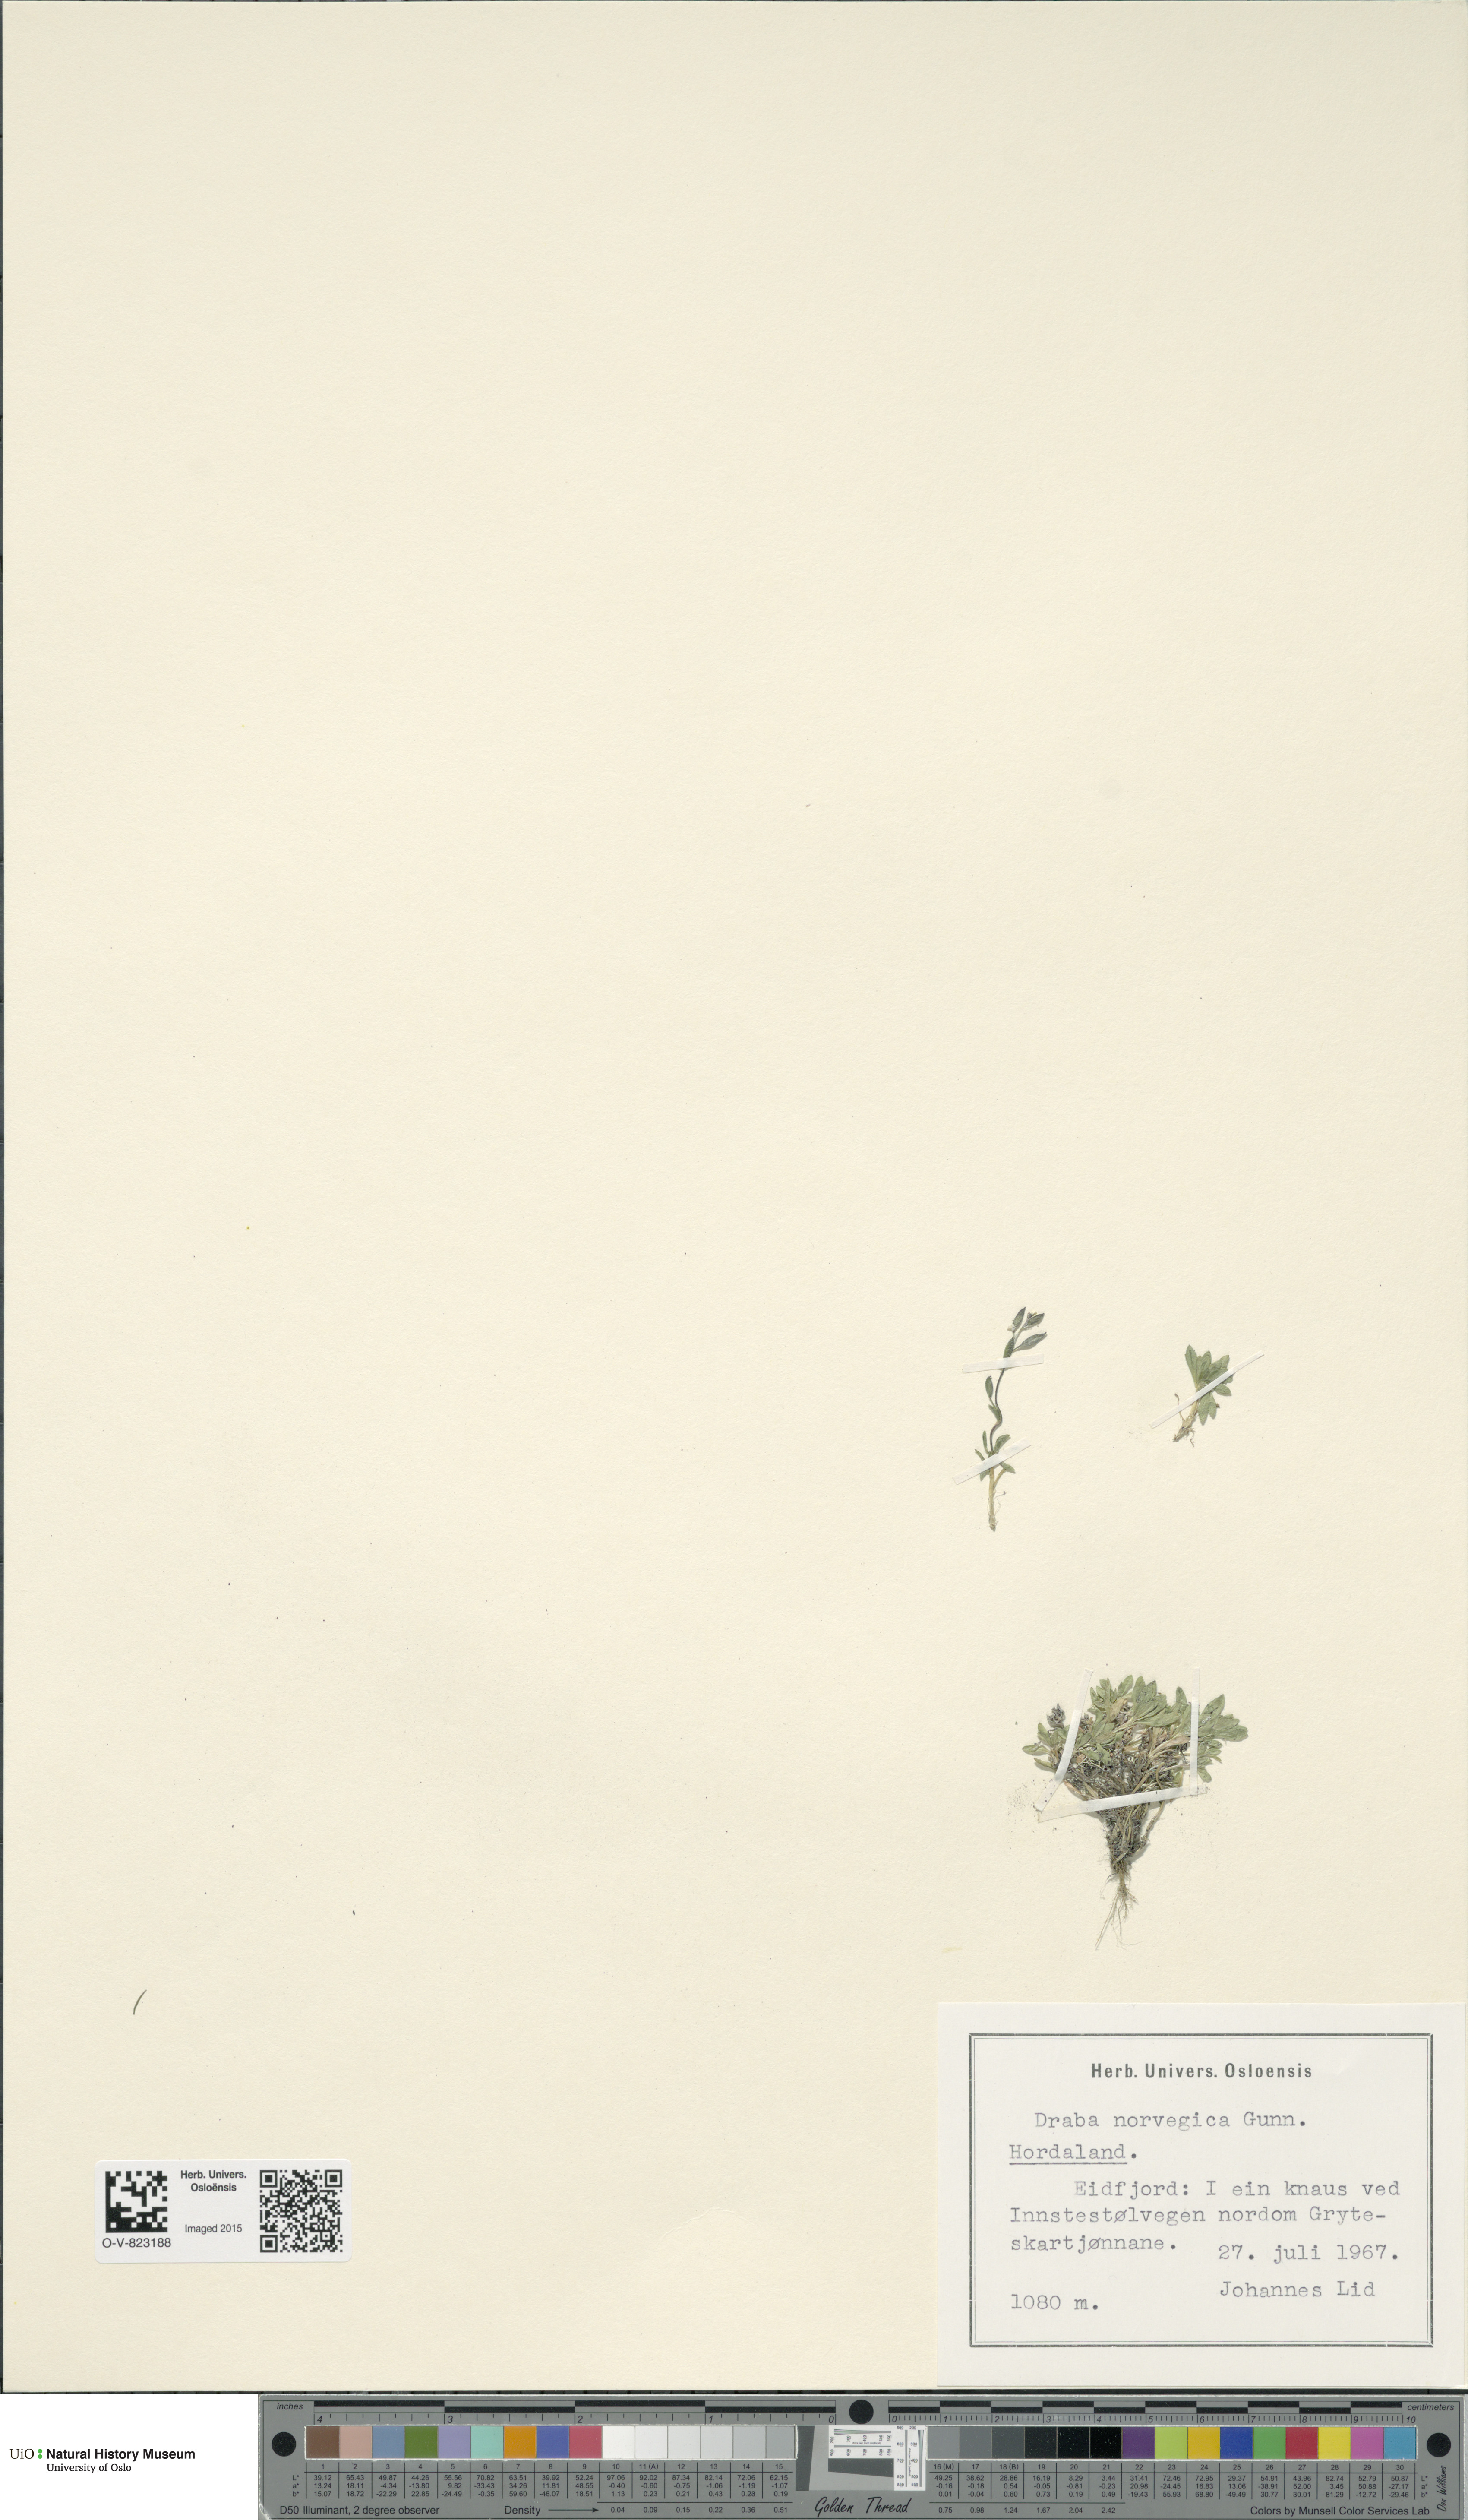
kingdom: Plantae
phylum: Tracheophyta
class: Magnoliopsida
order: Brassicales
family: Brassicaceae
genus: Draba
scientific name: Draba norvegica
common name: Rock whitlowgrass
